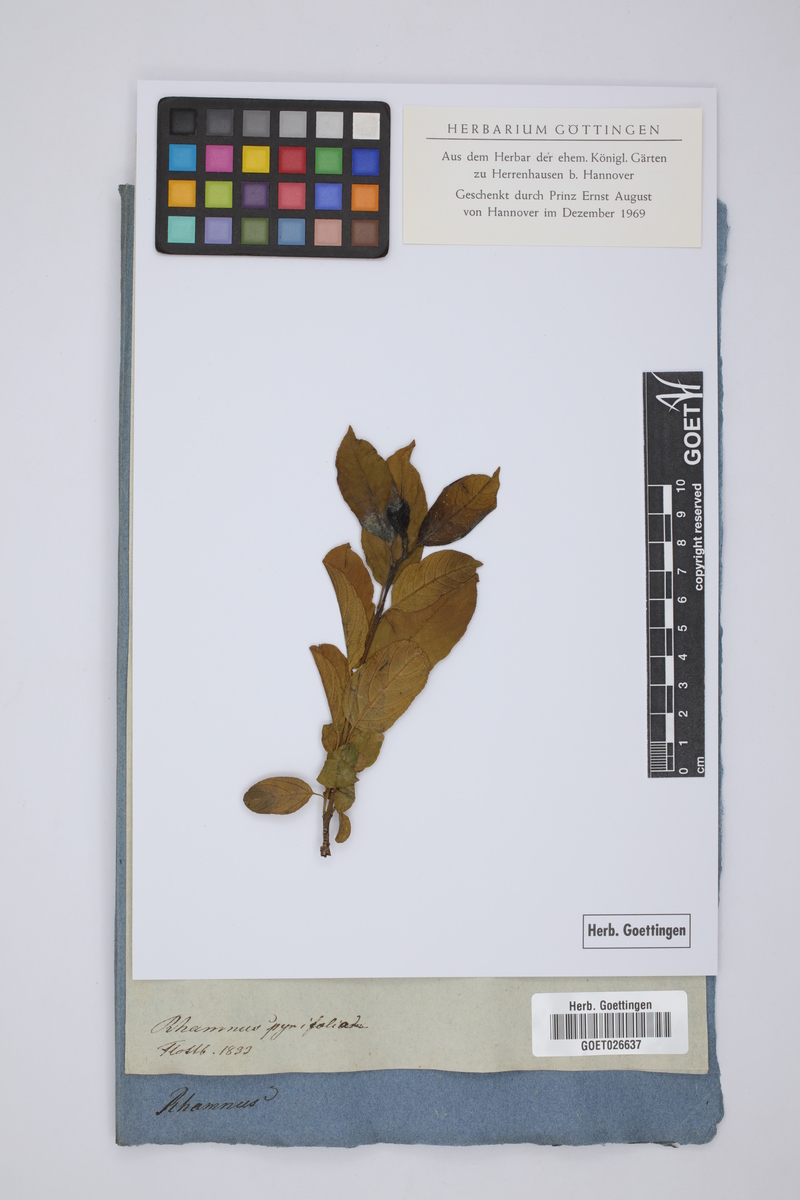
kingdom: Plantae
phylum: Tracheophyta
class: Magnoliopsida
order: Rosales
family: Rhamnaceae
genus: Endotropis
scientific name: Endotropis crocea
